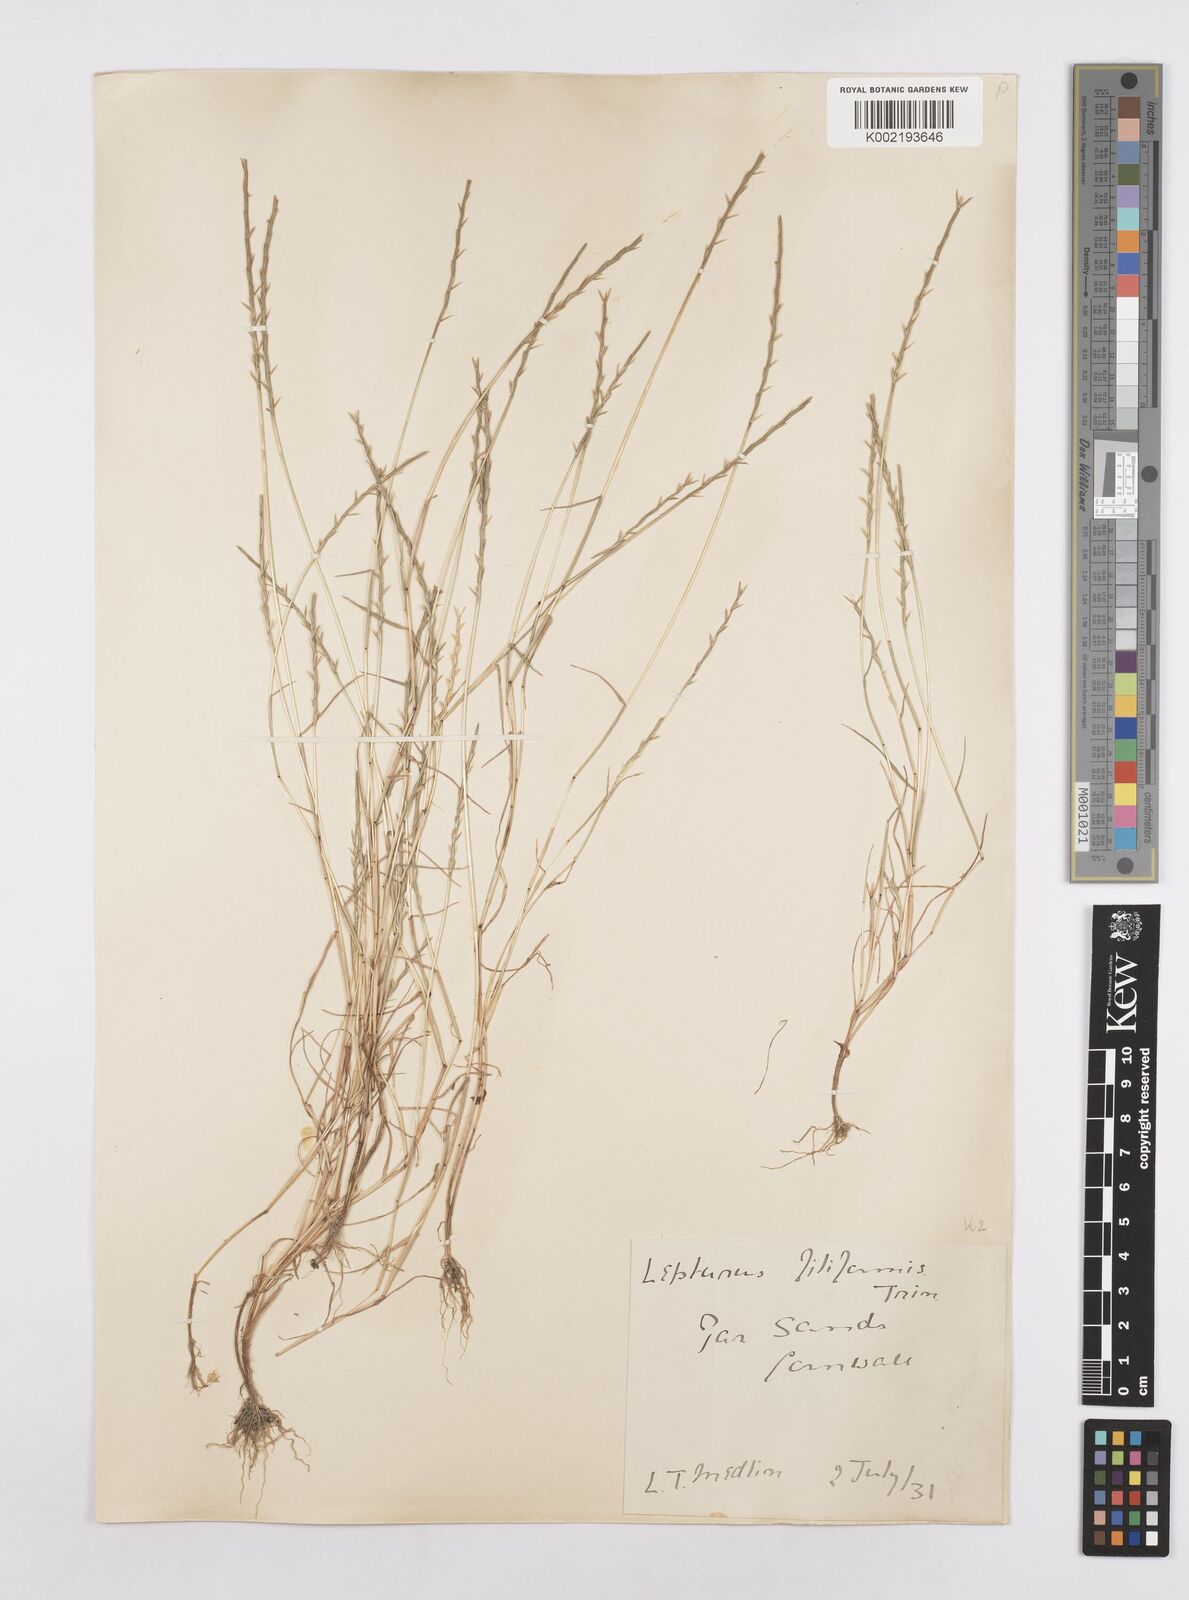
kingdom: Plantae
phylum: Tracheophyta
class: Liliopsida
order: Poales
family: Poaceae
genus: Parapholis
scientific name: Parapholis strigosa
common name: Hard-grass
